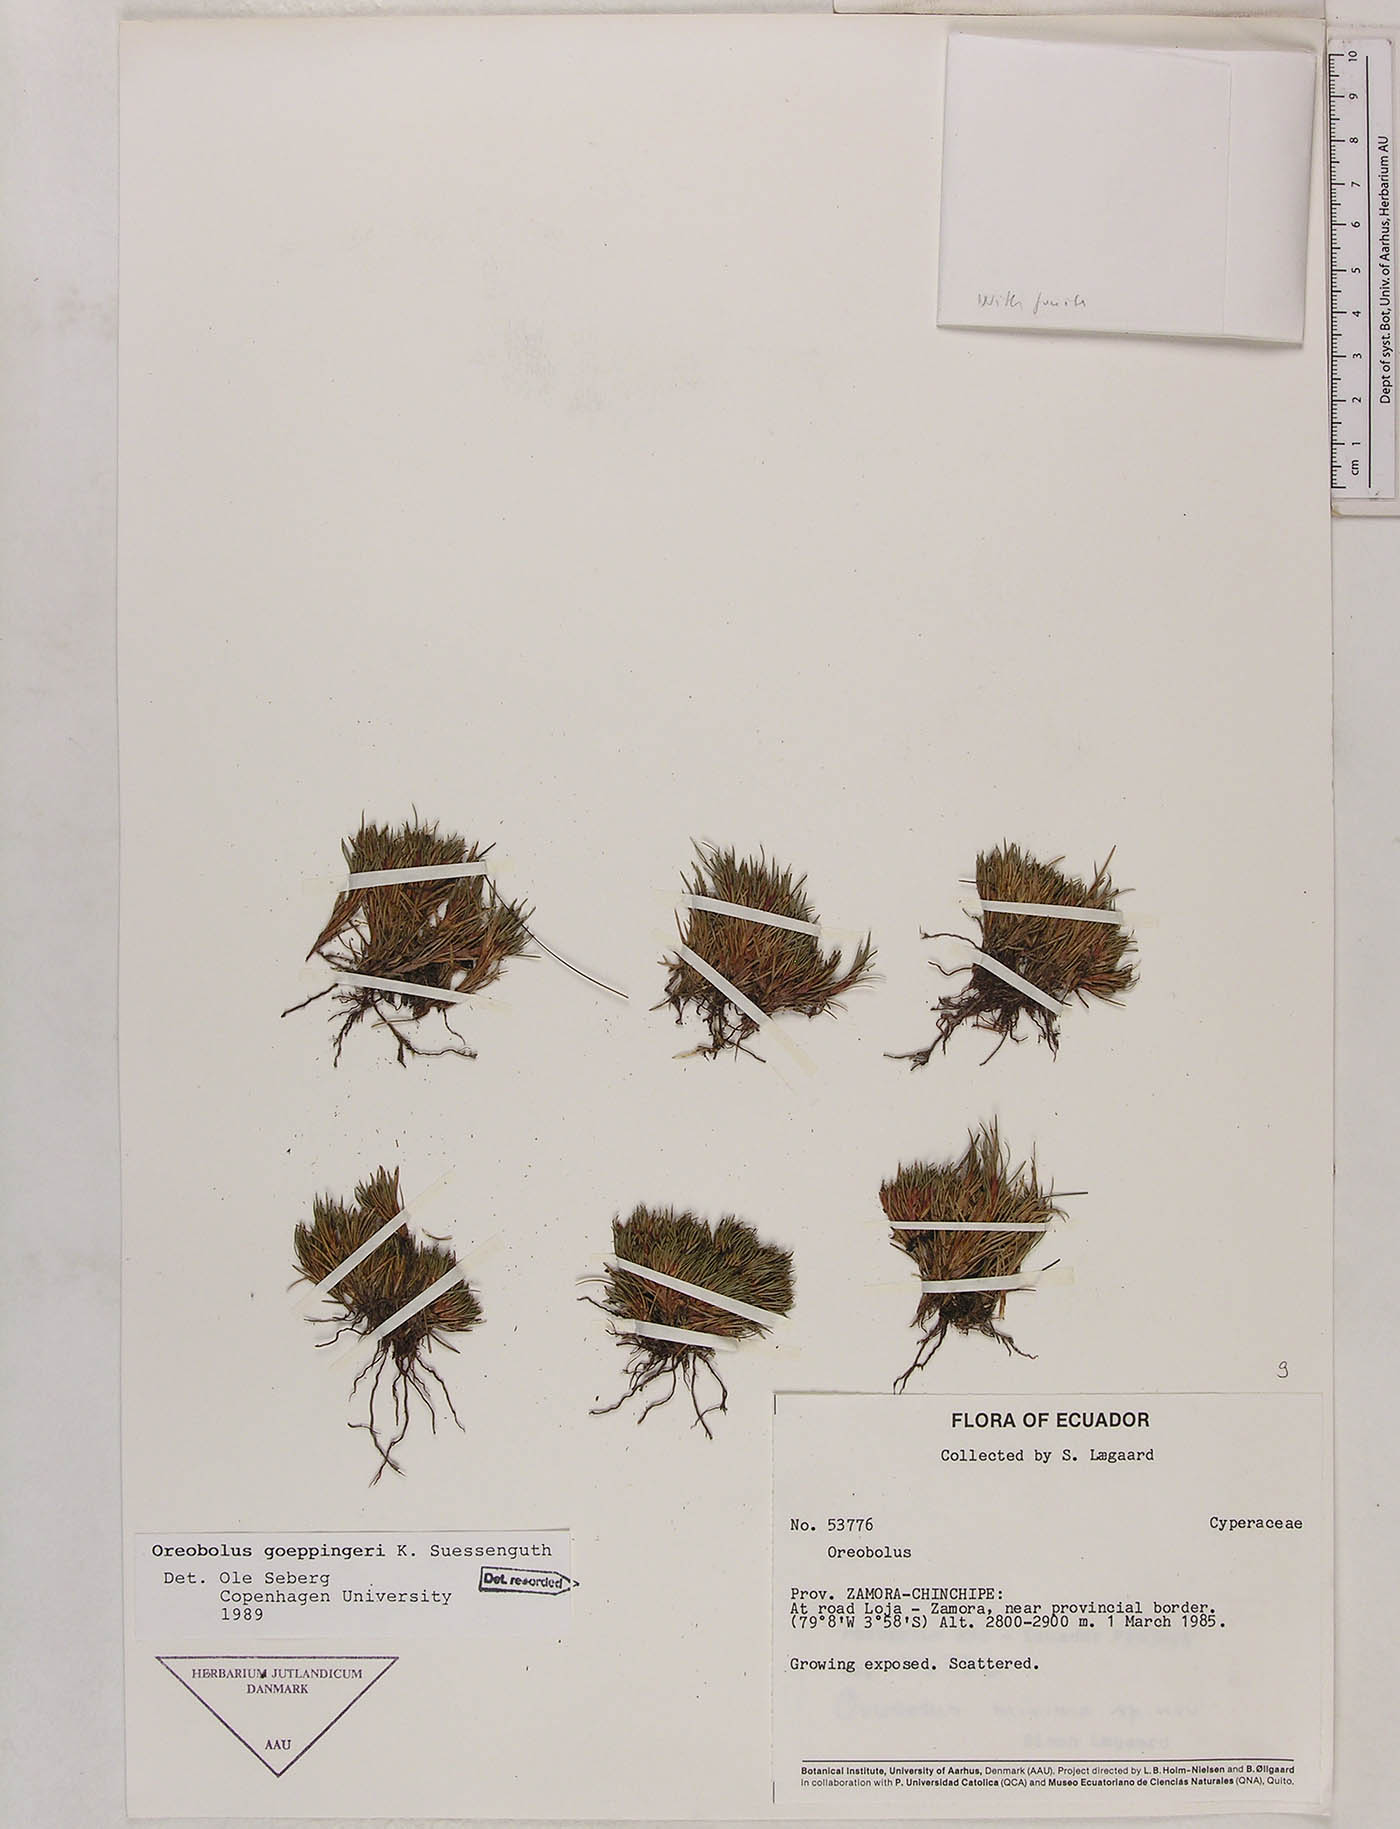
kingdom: Plantae
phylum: Tracheophyta
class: Liliopsida
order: Poales
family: Cyperaceae
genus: Oreobolus
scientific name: Oreobolus goeppingeri
